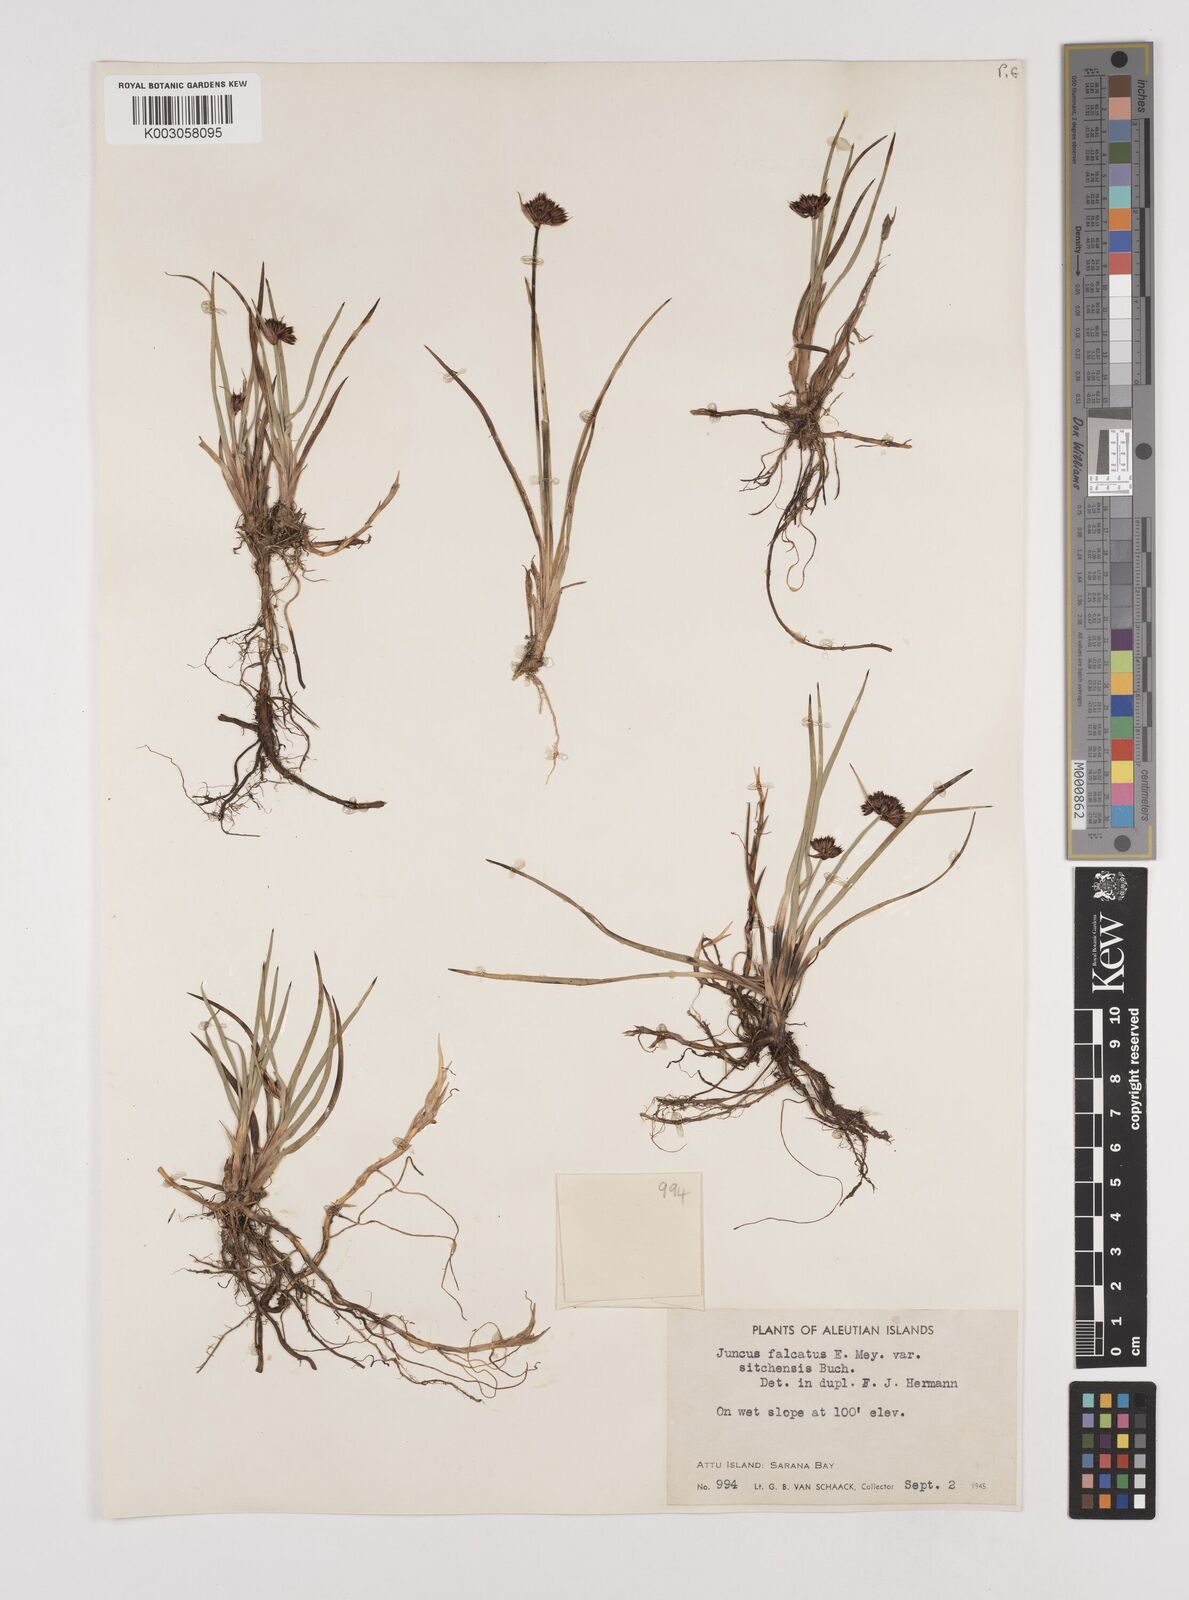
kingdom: Plantae
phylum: Tracheophyta
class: Liliopsida
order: Poales
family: Juncaceae
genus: Juncus
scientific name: Juncus falcatus
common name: Sickle-leaf rush
